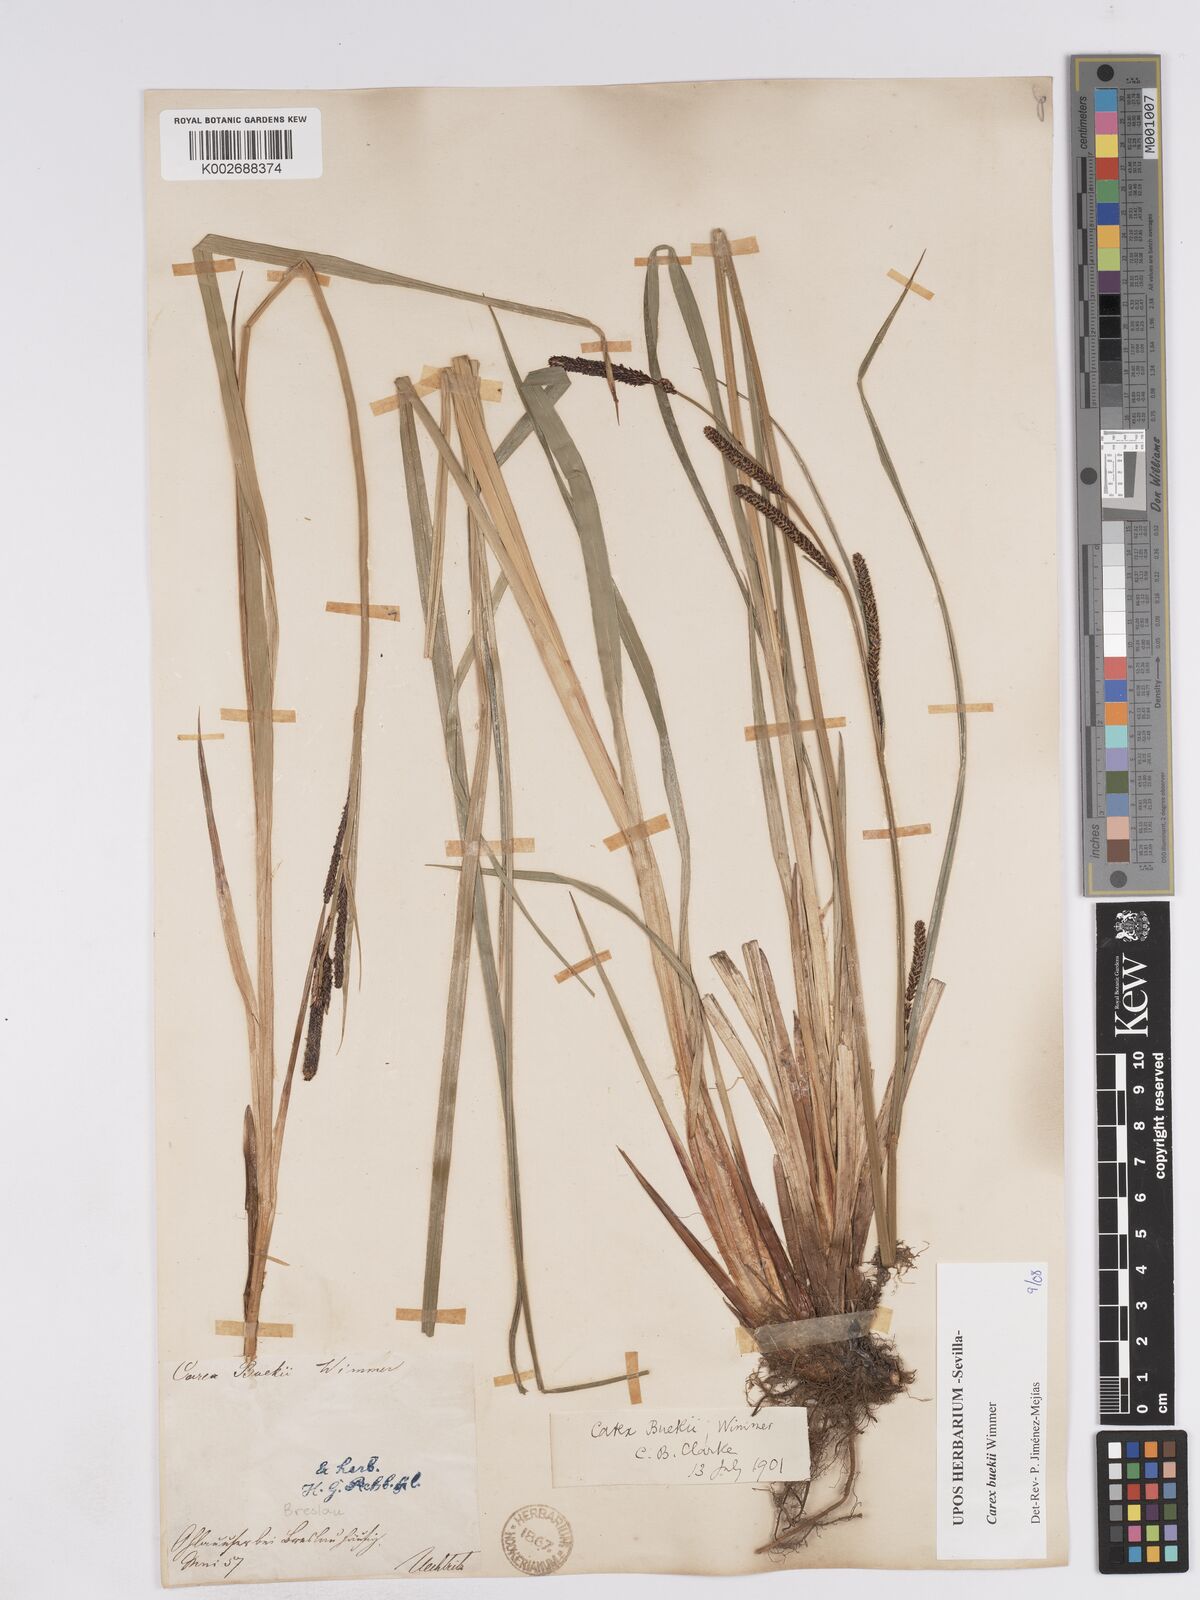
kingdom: Plantae
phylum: Tracheophyta
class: Liliopsida
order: Poales
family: Cyperaceae
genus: Carex
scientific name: Carex buekii
